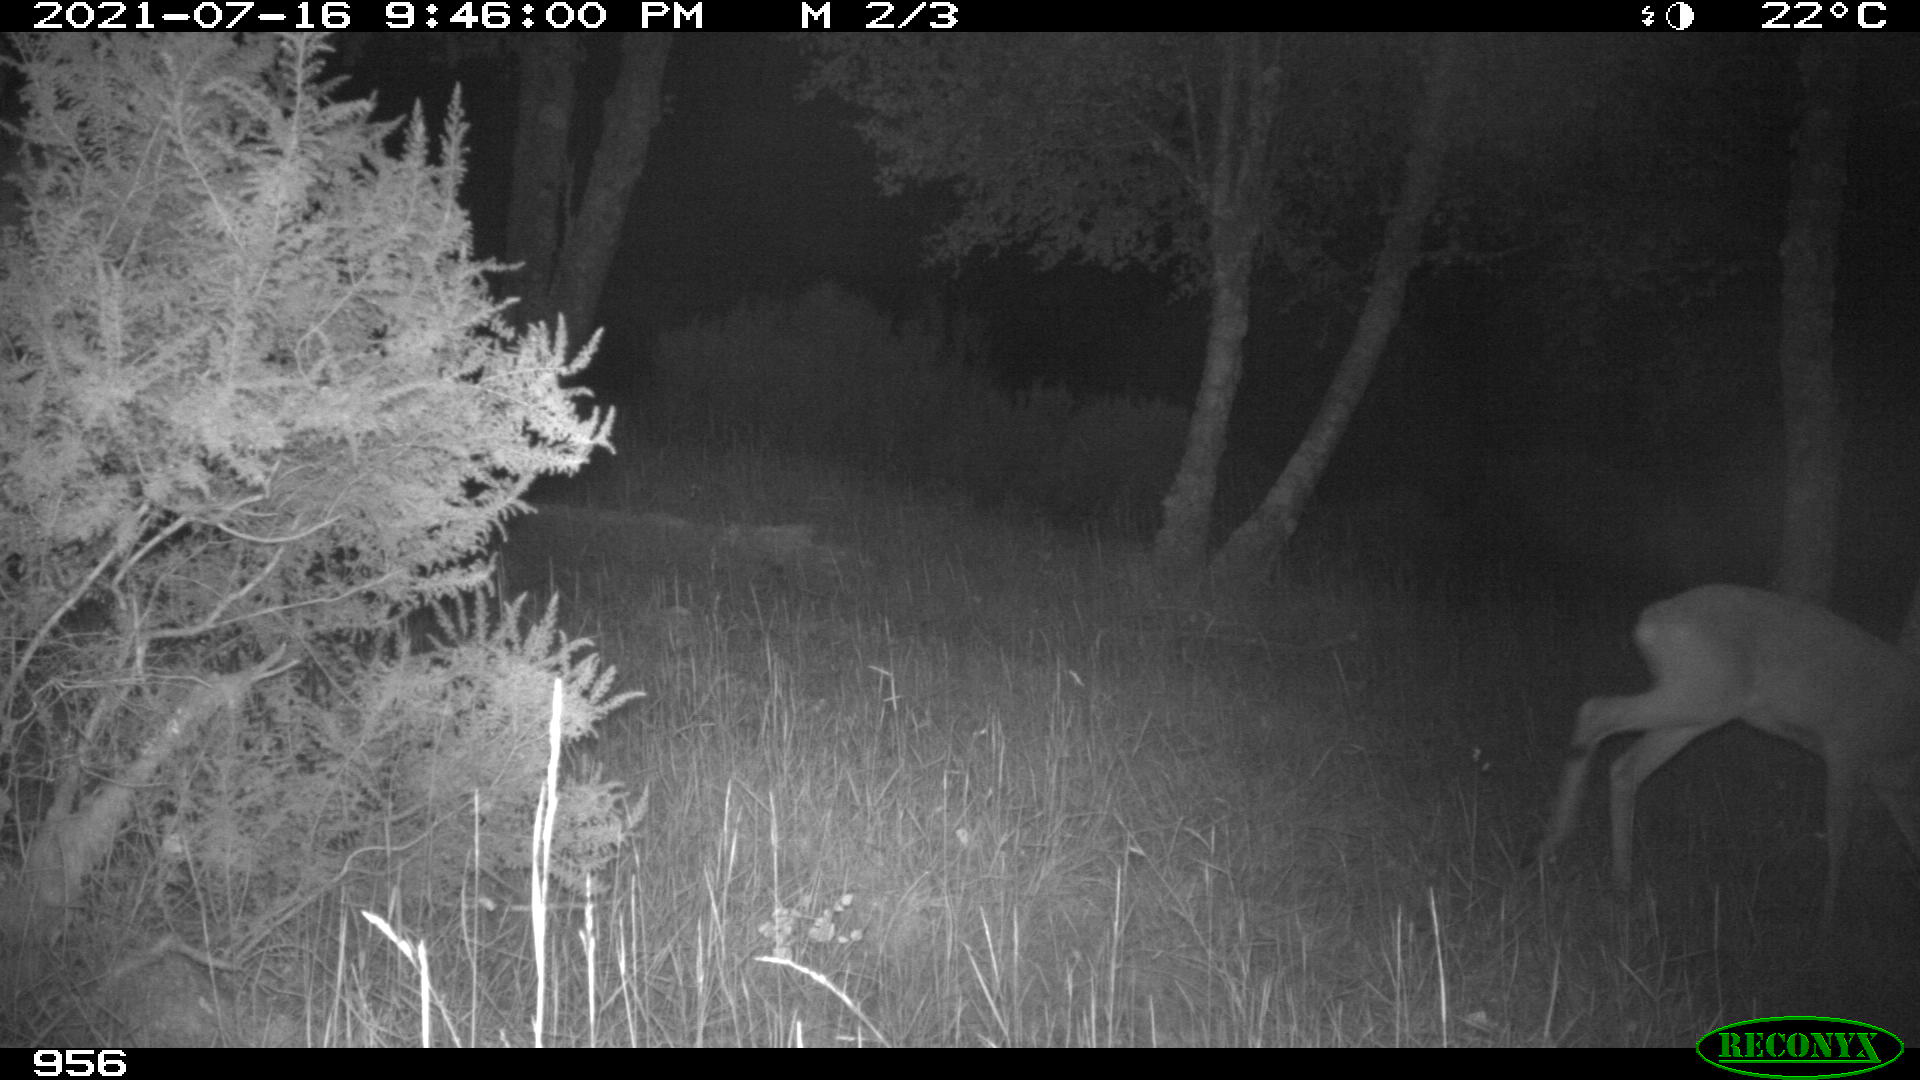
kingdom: Animalia
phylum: Chordata
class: Mammalia
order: Artiodactyla
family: Cervidae
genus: Capreolus
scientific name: Capreolus capreolus
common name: Western roe deer
